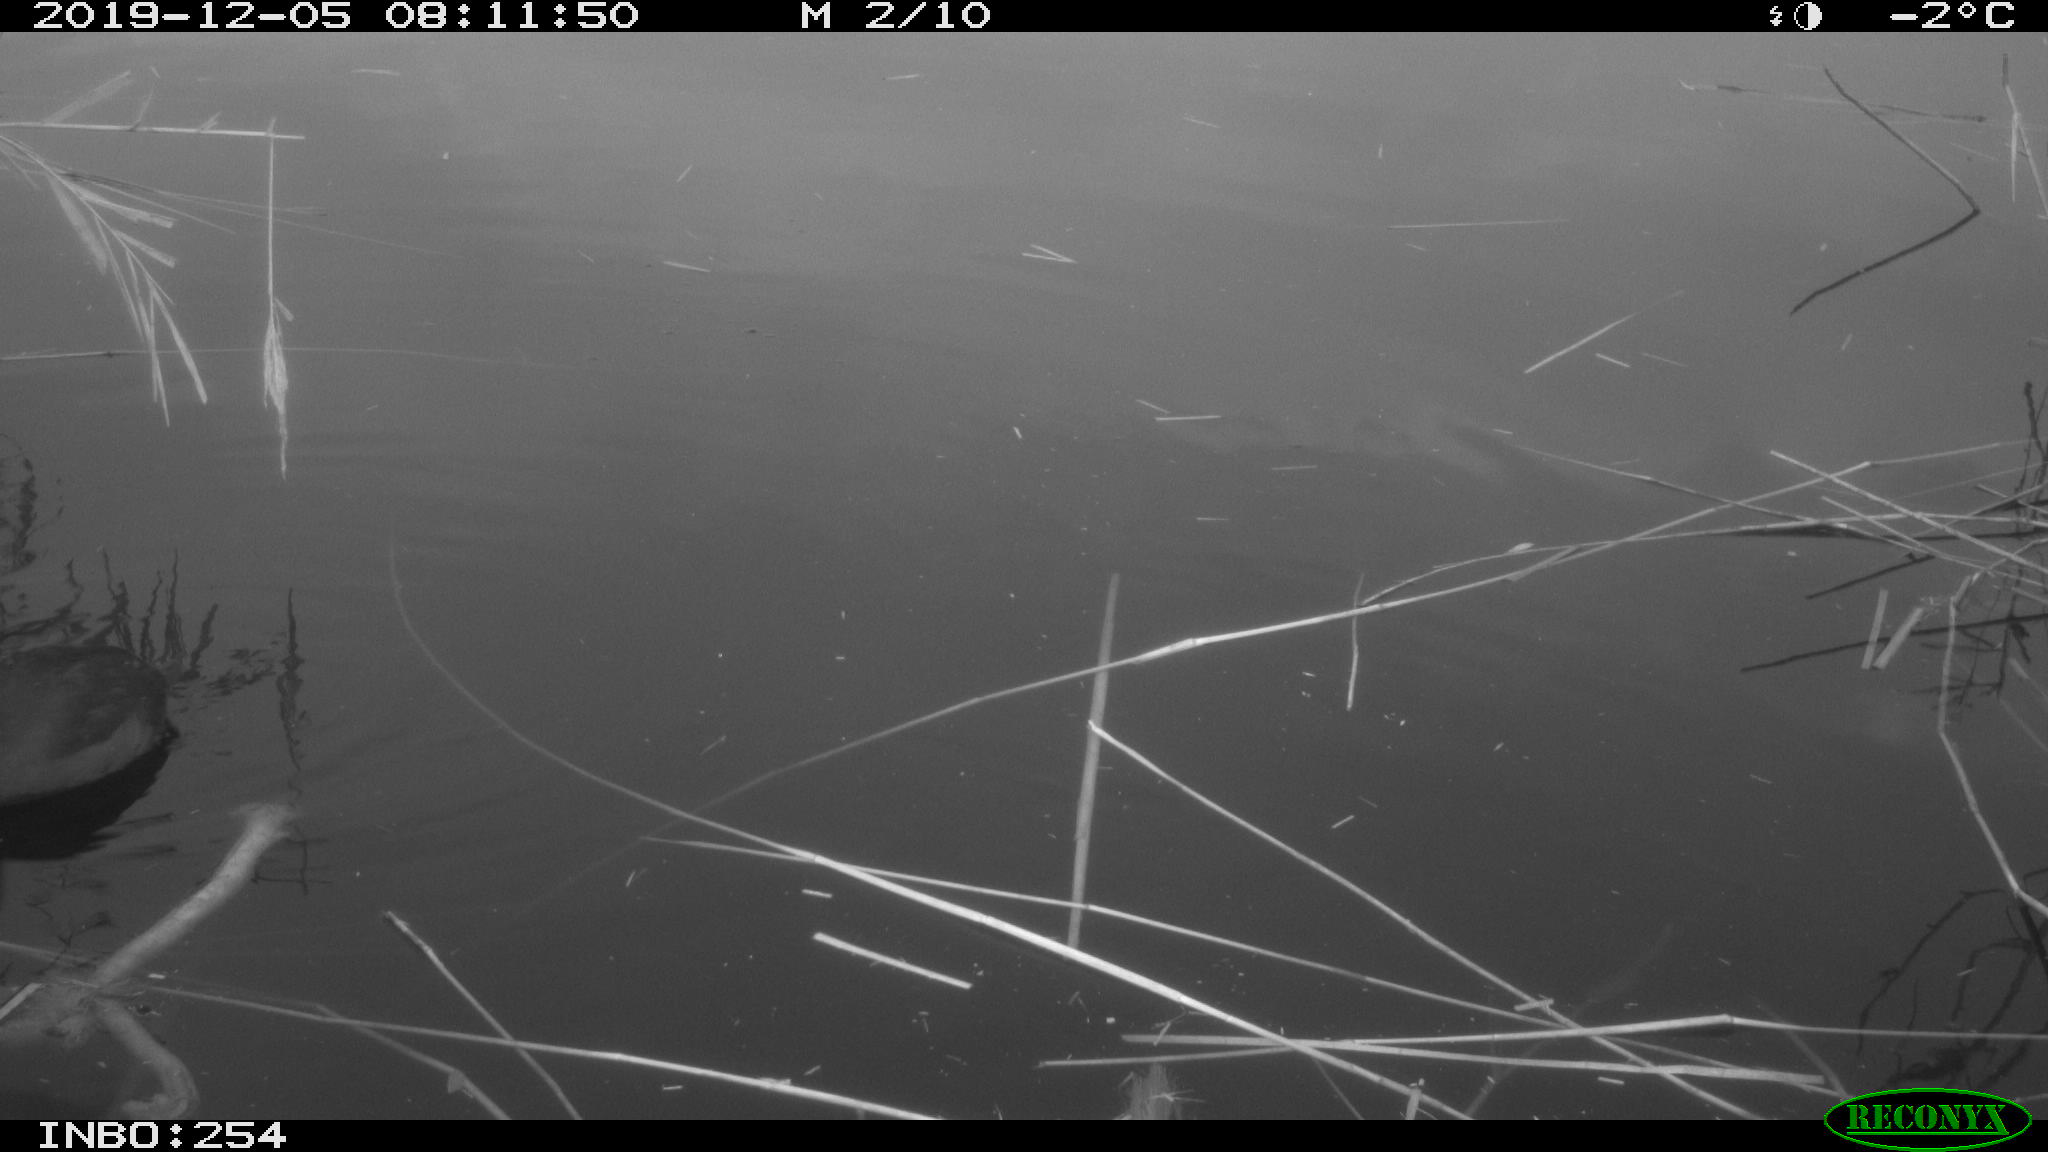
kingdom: Animalia
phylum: Chordata
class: Aves
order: Gruiformes
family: Rallidae
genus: Fulica
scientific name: Fulica atra
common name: Eurasian coot
